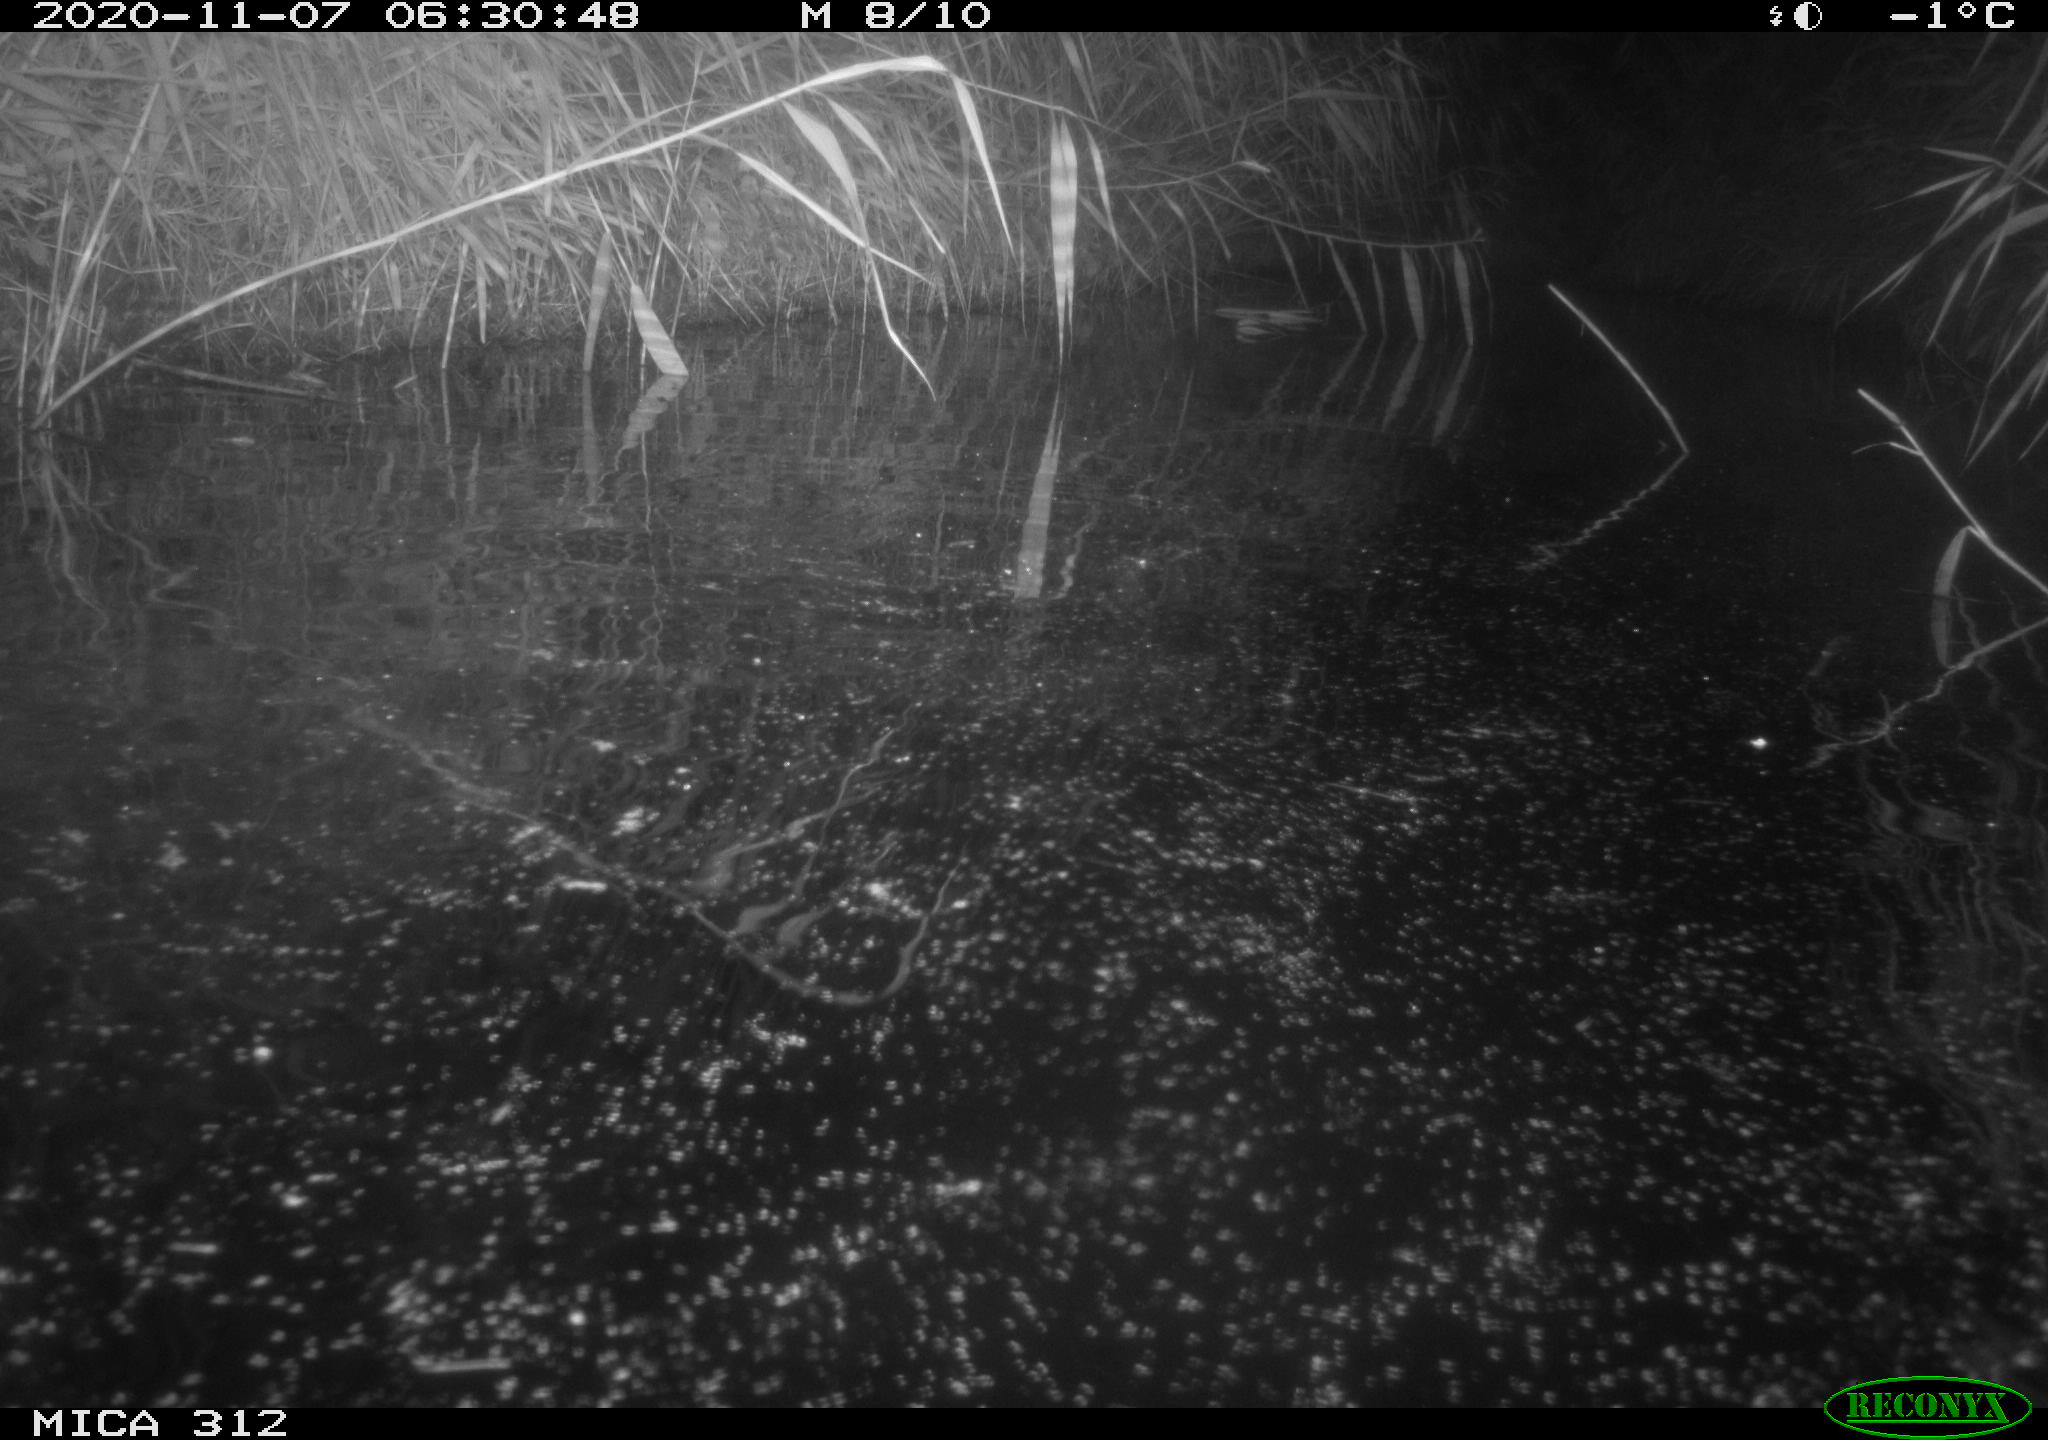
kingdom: Animalia
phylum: Chordata
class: Mammalia
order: Rodentia
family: Muridae
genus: Rattus
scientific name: Rattus norvegicus
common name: Brown rat
